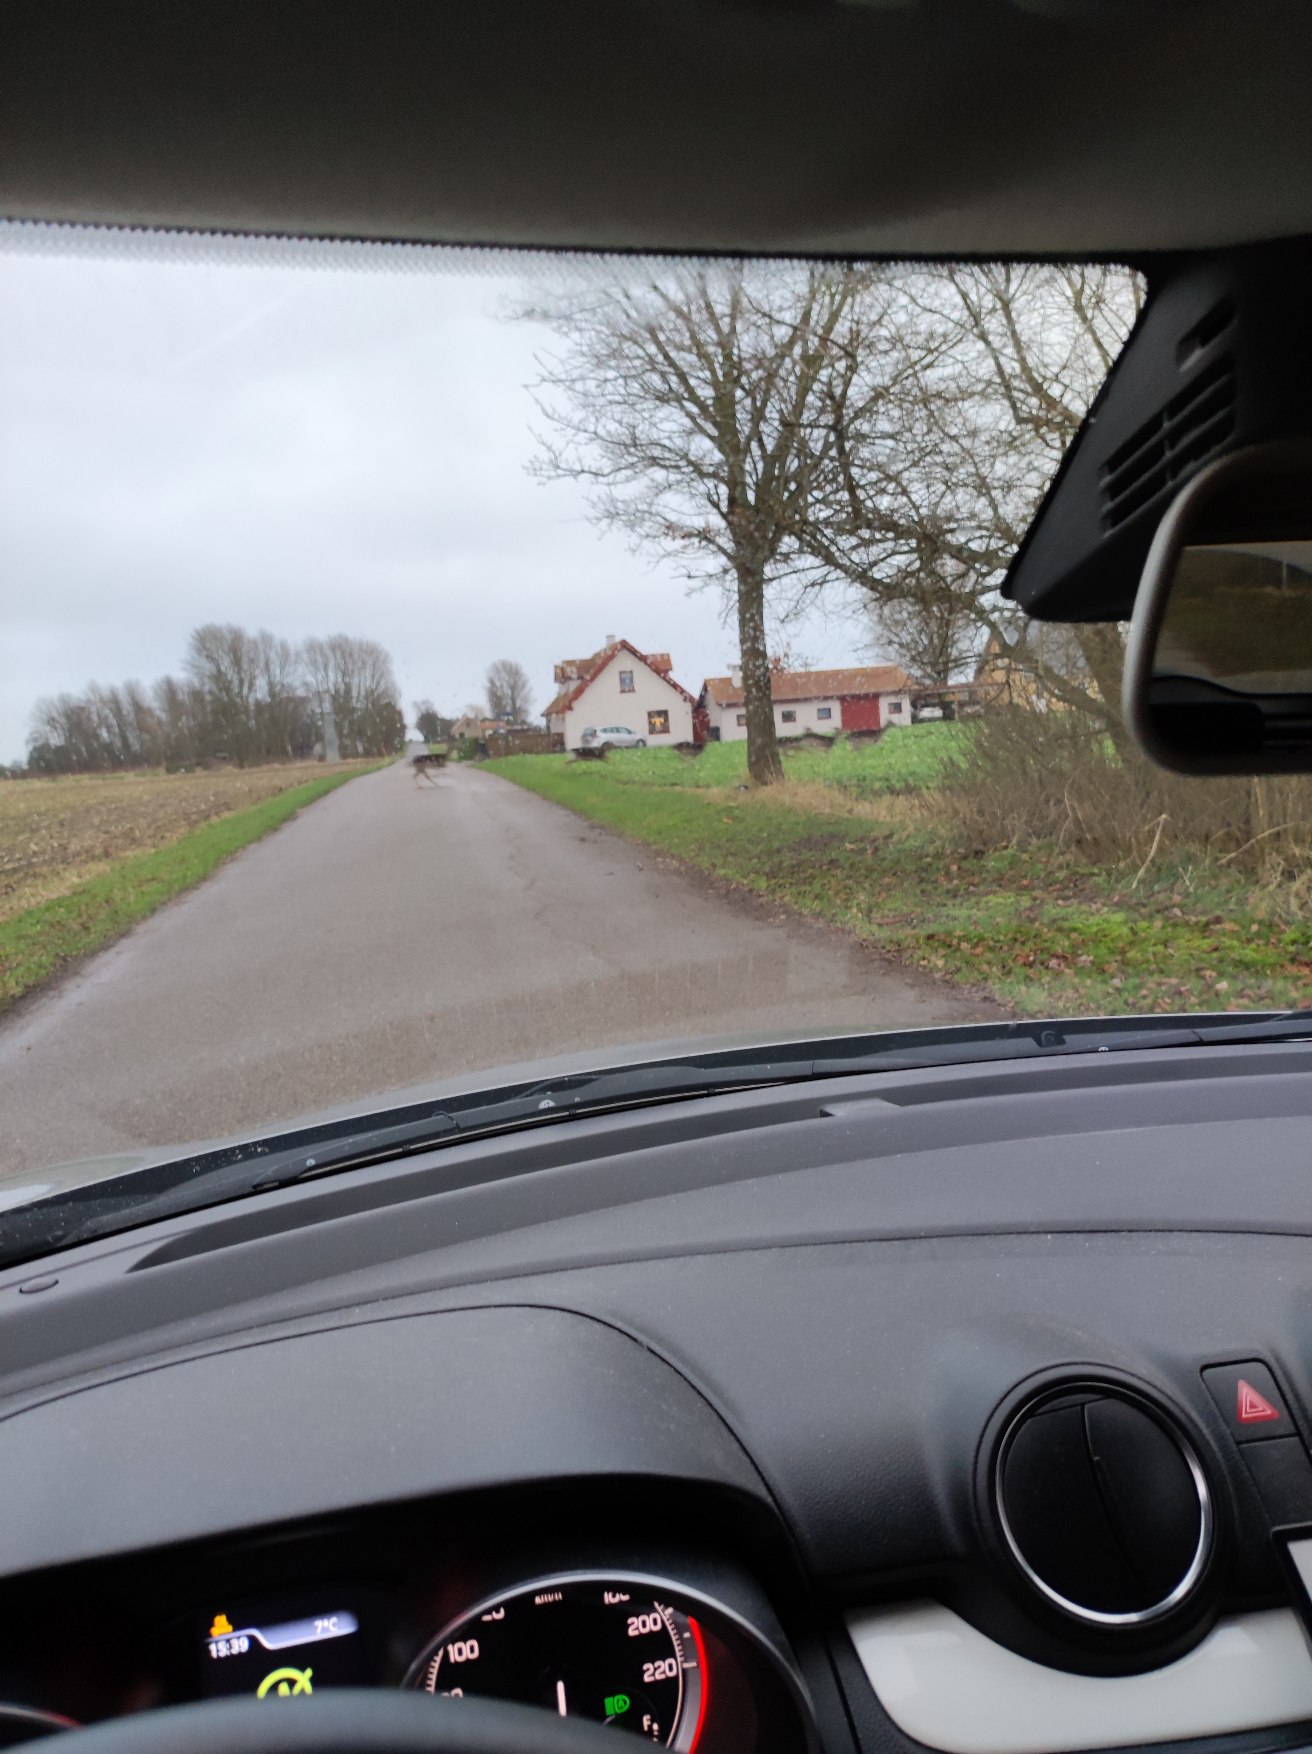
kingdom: Animalia
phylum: Chordata
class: Mammalia
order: Artiodactyla
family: Cervidae
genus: Dama
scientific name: Dama dama
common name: Dådyr
